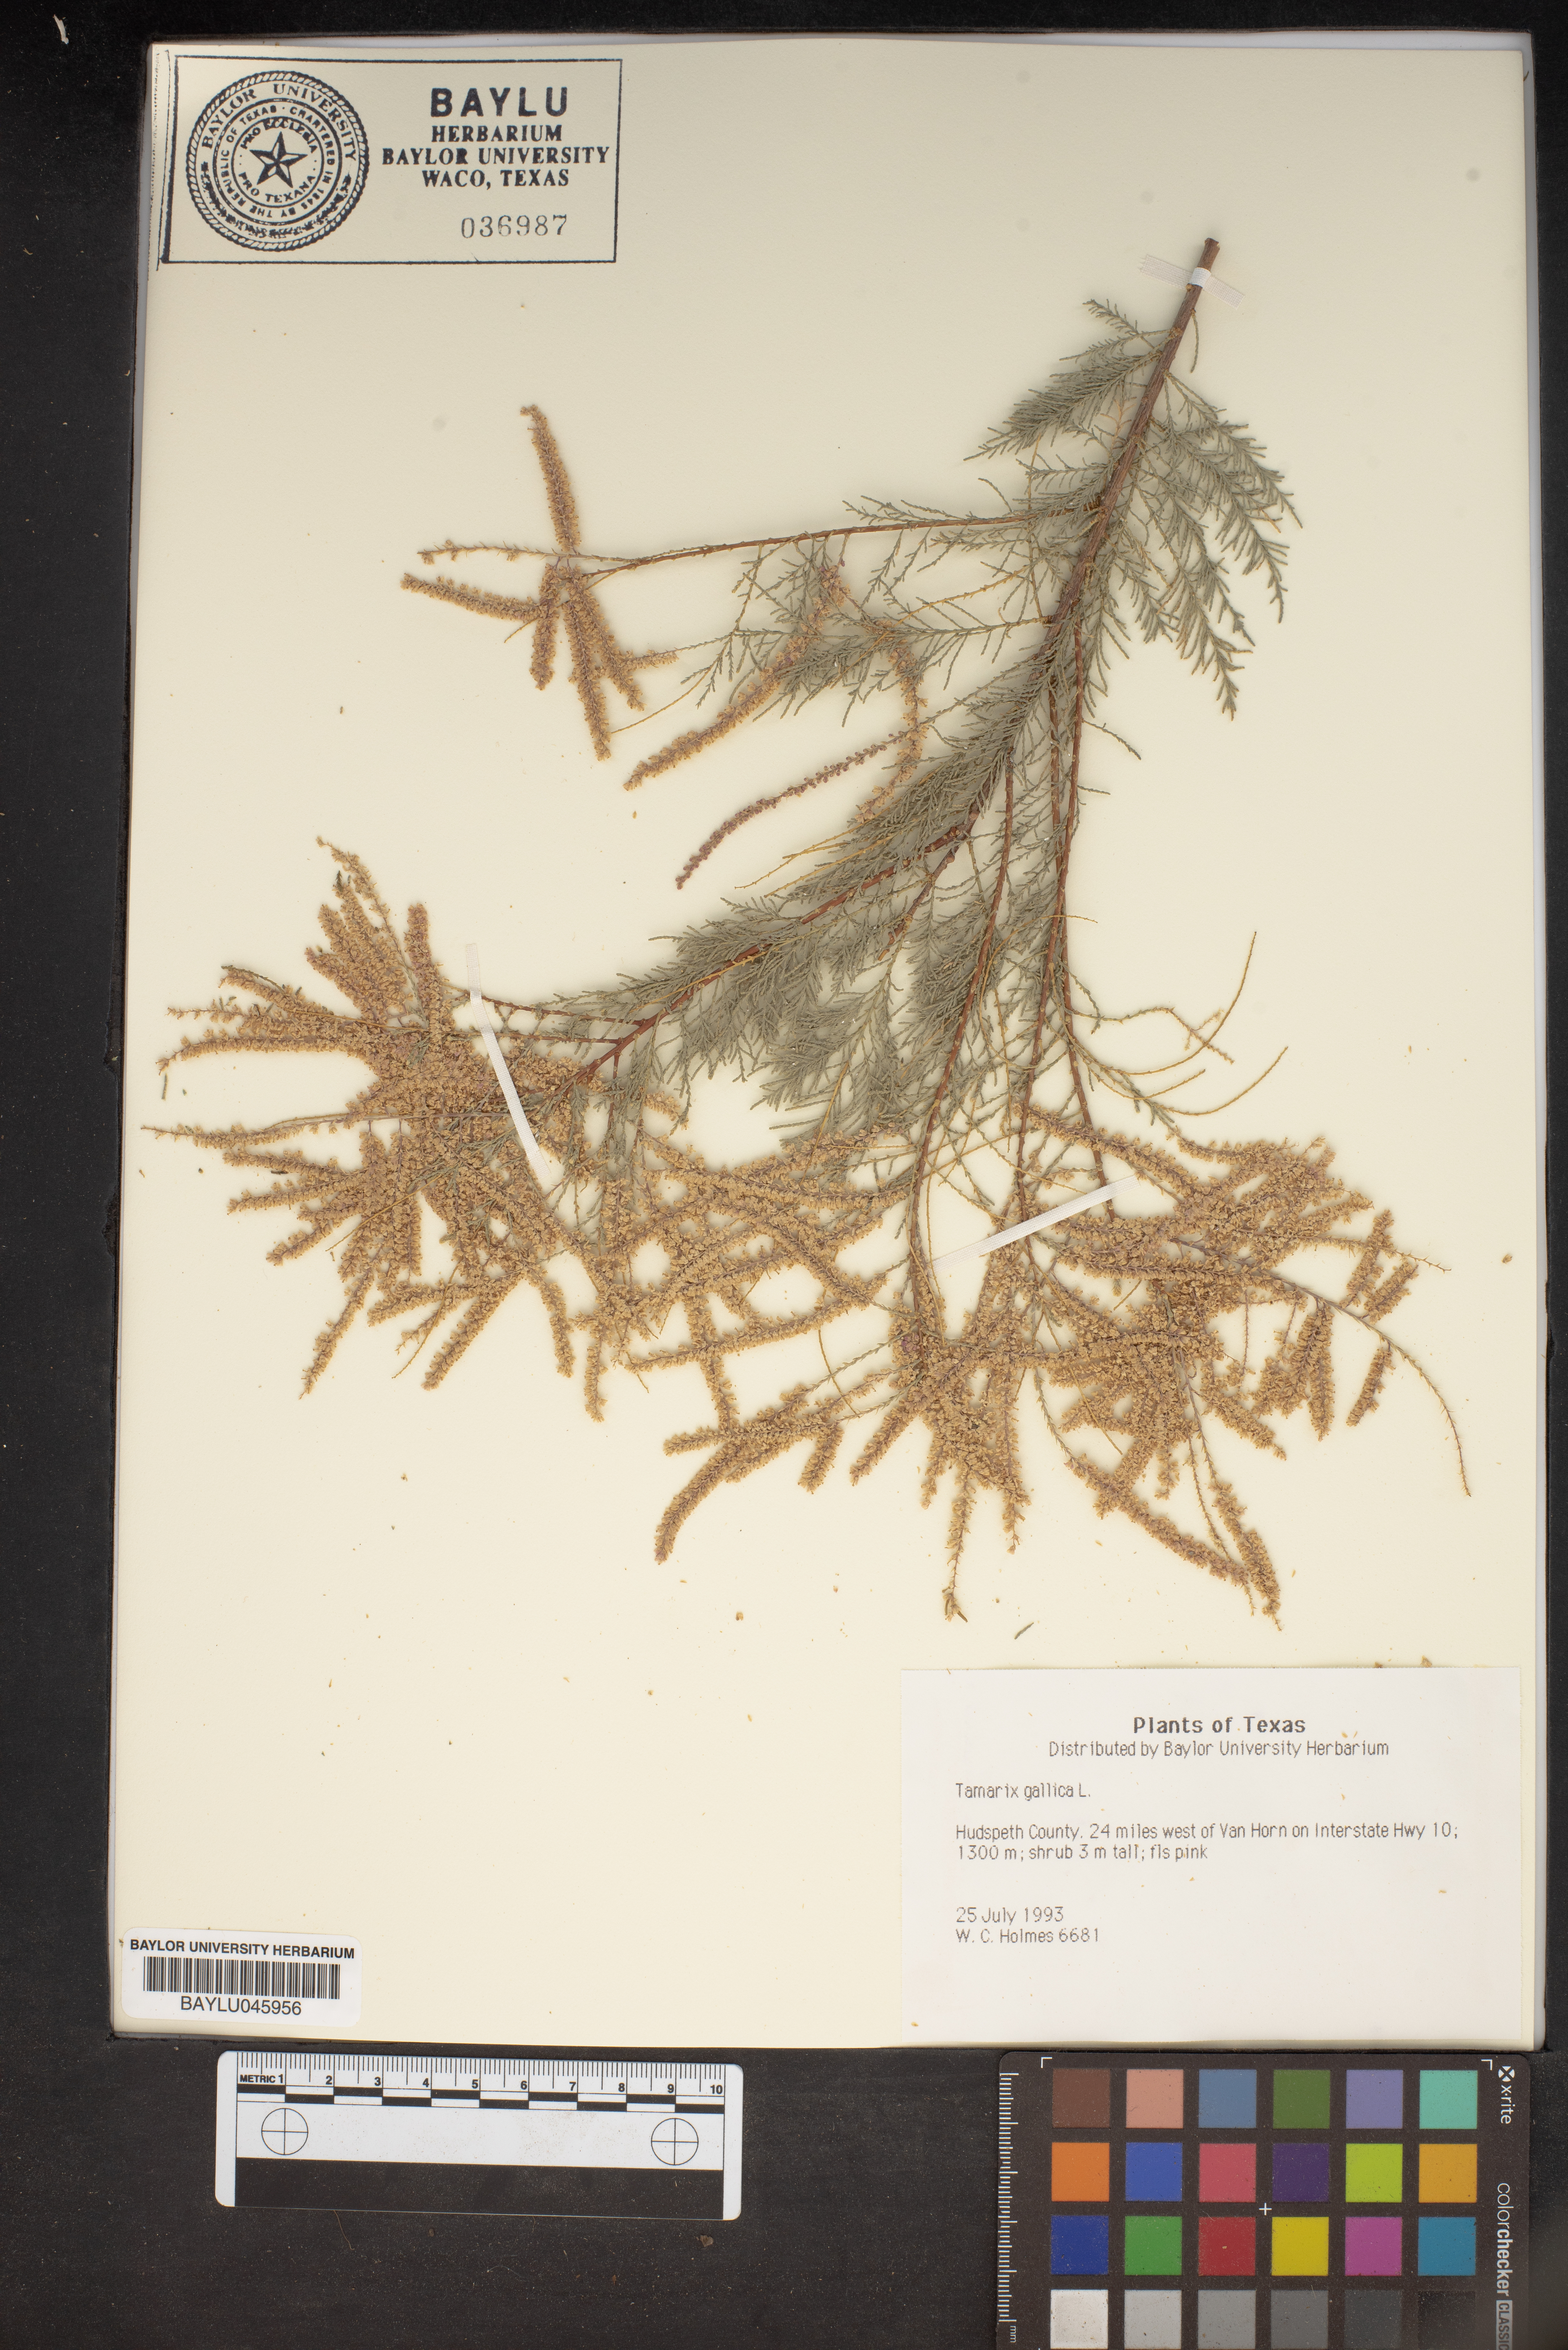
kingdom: Plantae
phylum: Tracheophyta
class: Magnoliopsida
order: Caryophyllales
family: Tamaricaceae
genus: Tamarix
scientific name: Tamarix gallica
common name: Tamarisk
